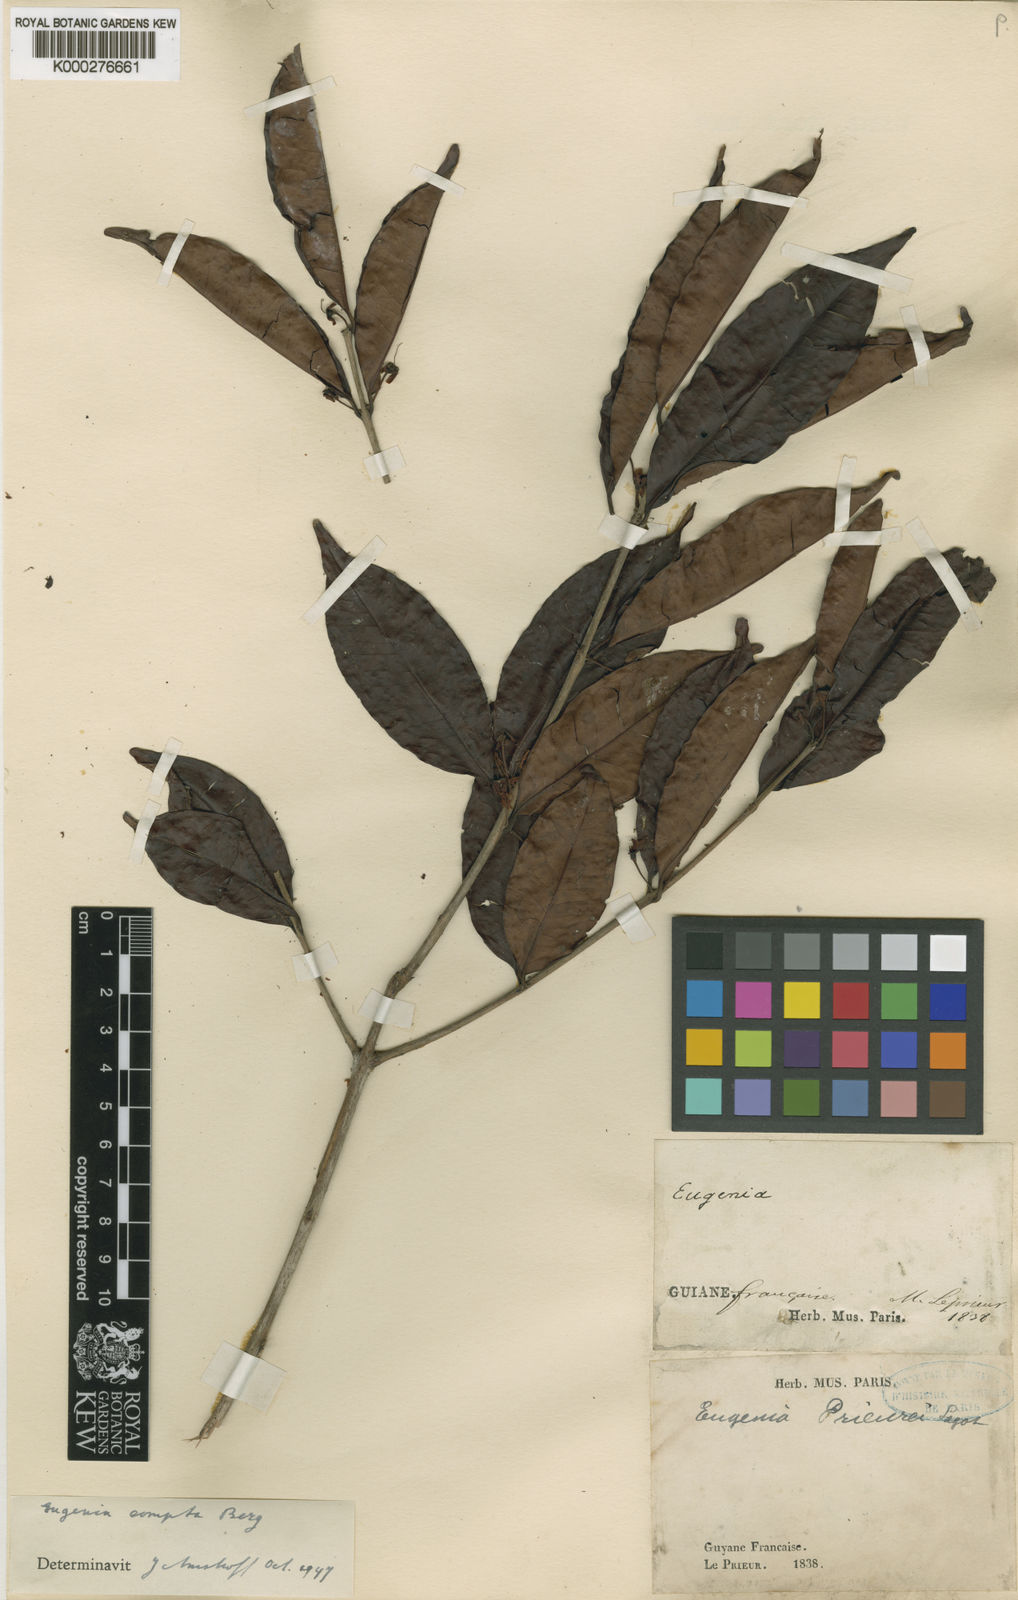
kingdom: Plantae
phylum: Tracheophyta
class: Magnoliopsida
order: Myrtales
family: Myrtaceae
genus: Eugenia
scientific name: Eugenia pseudopsidium
